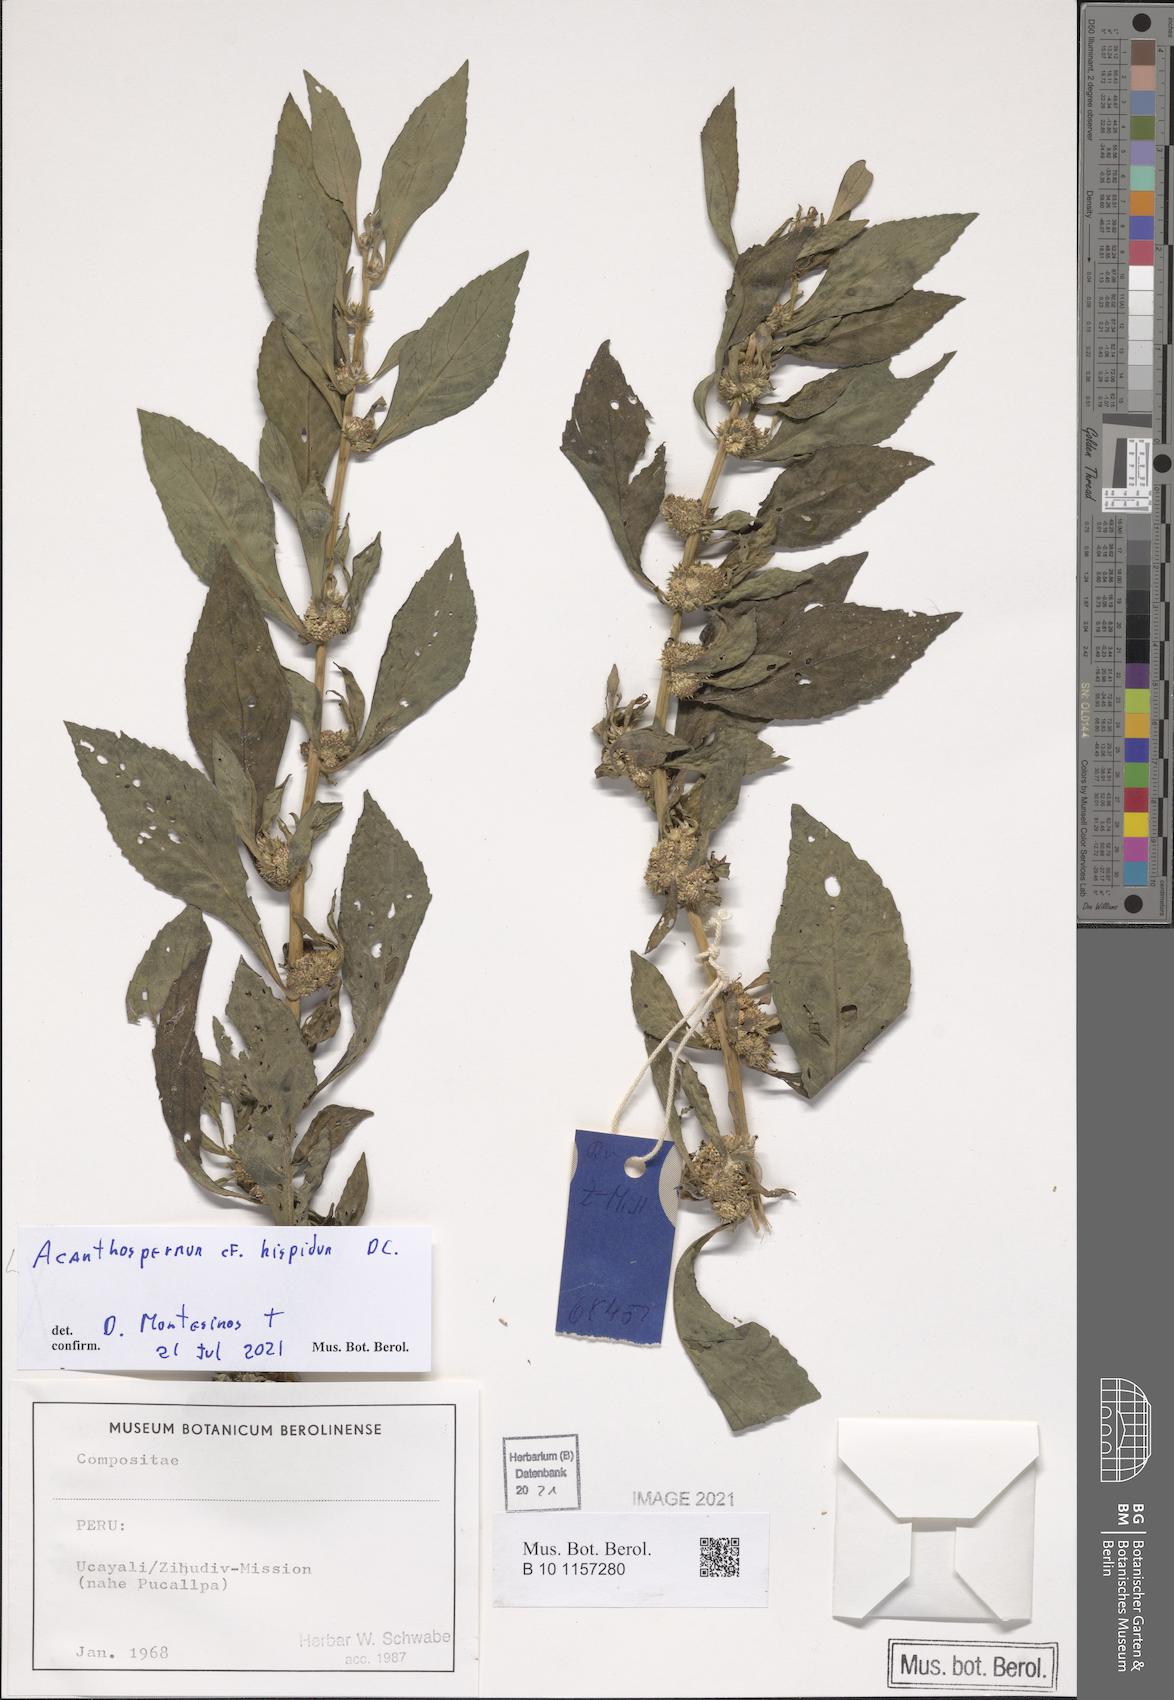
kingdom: Plantae
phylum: Tracheophyta
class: Magnoliopsida
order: Asterales
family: Asteraceae
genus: Acanthospermum
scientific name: Acanthospermum hispidum
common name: Hispid starbur
